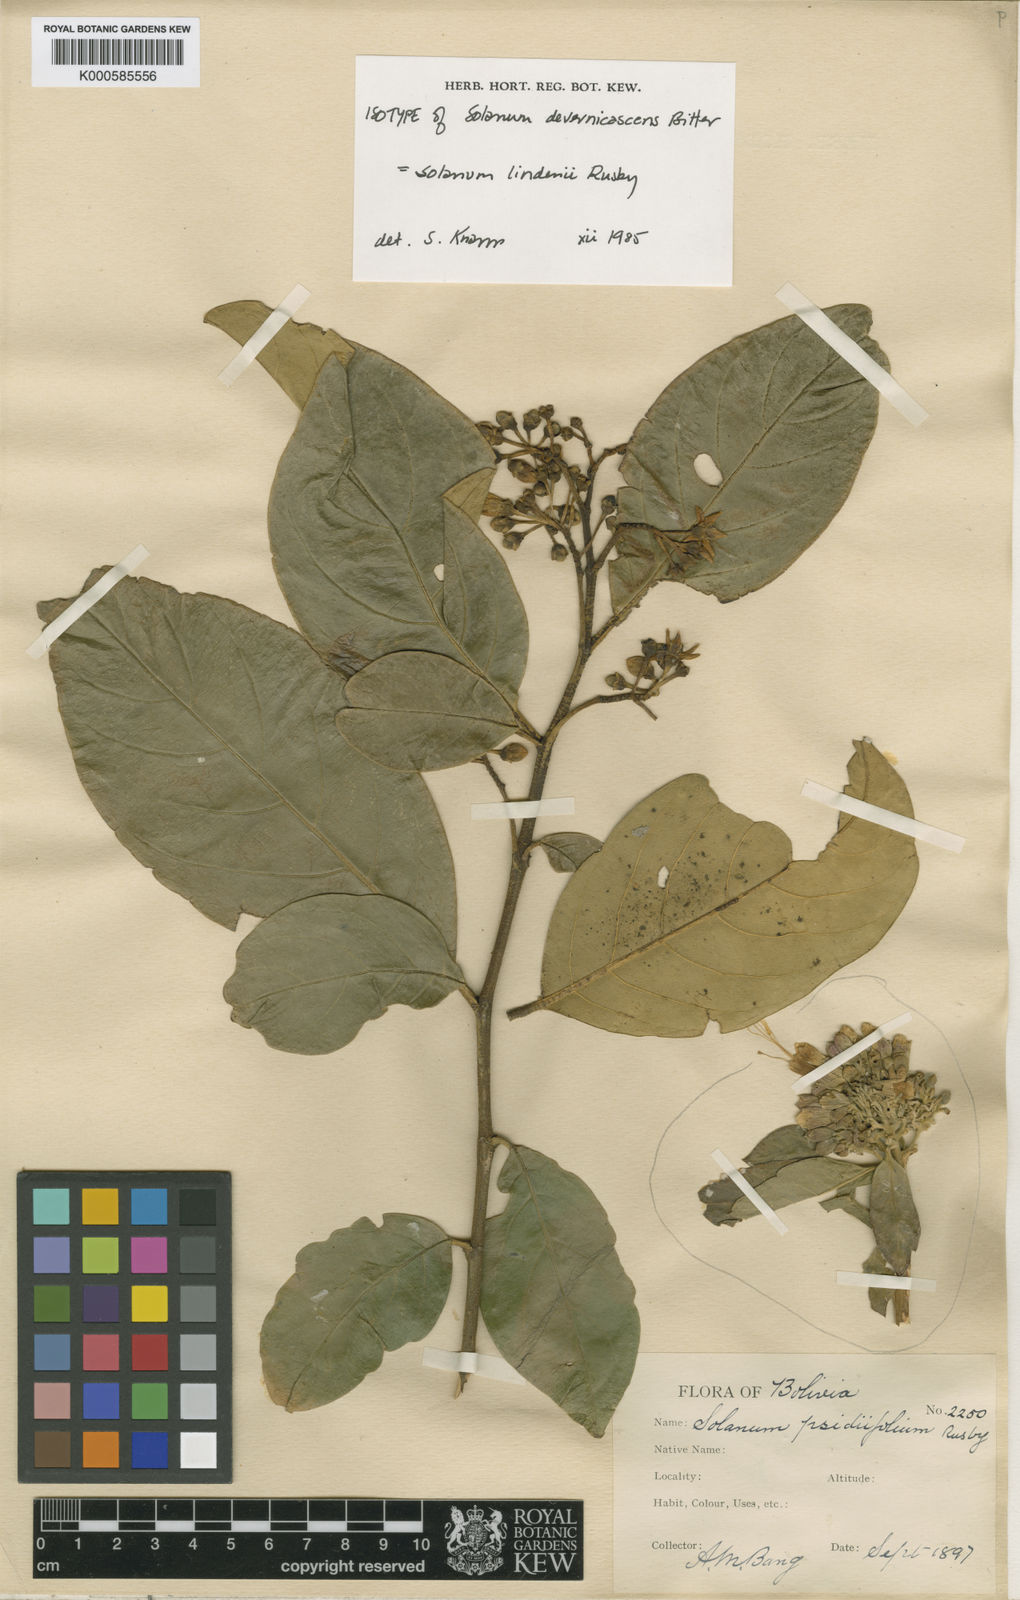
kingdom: Plantae
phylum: Tracheophyta
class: Magnoliopsida
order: Solanales
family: Solanaceae
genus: Solanum
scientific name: Solanum lindenii
